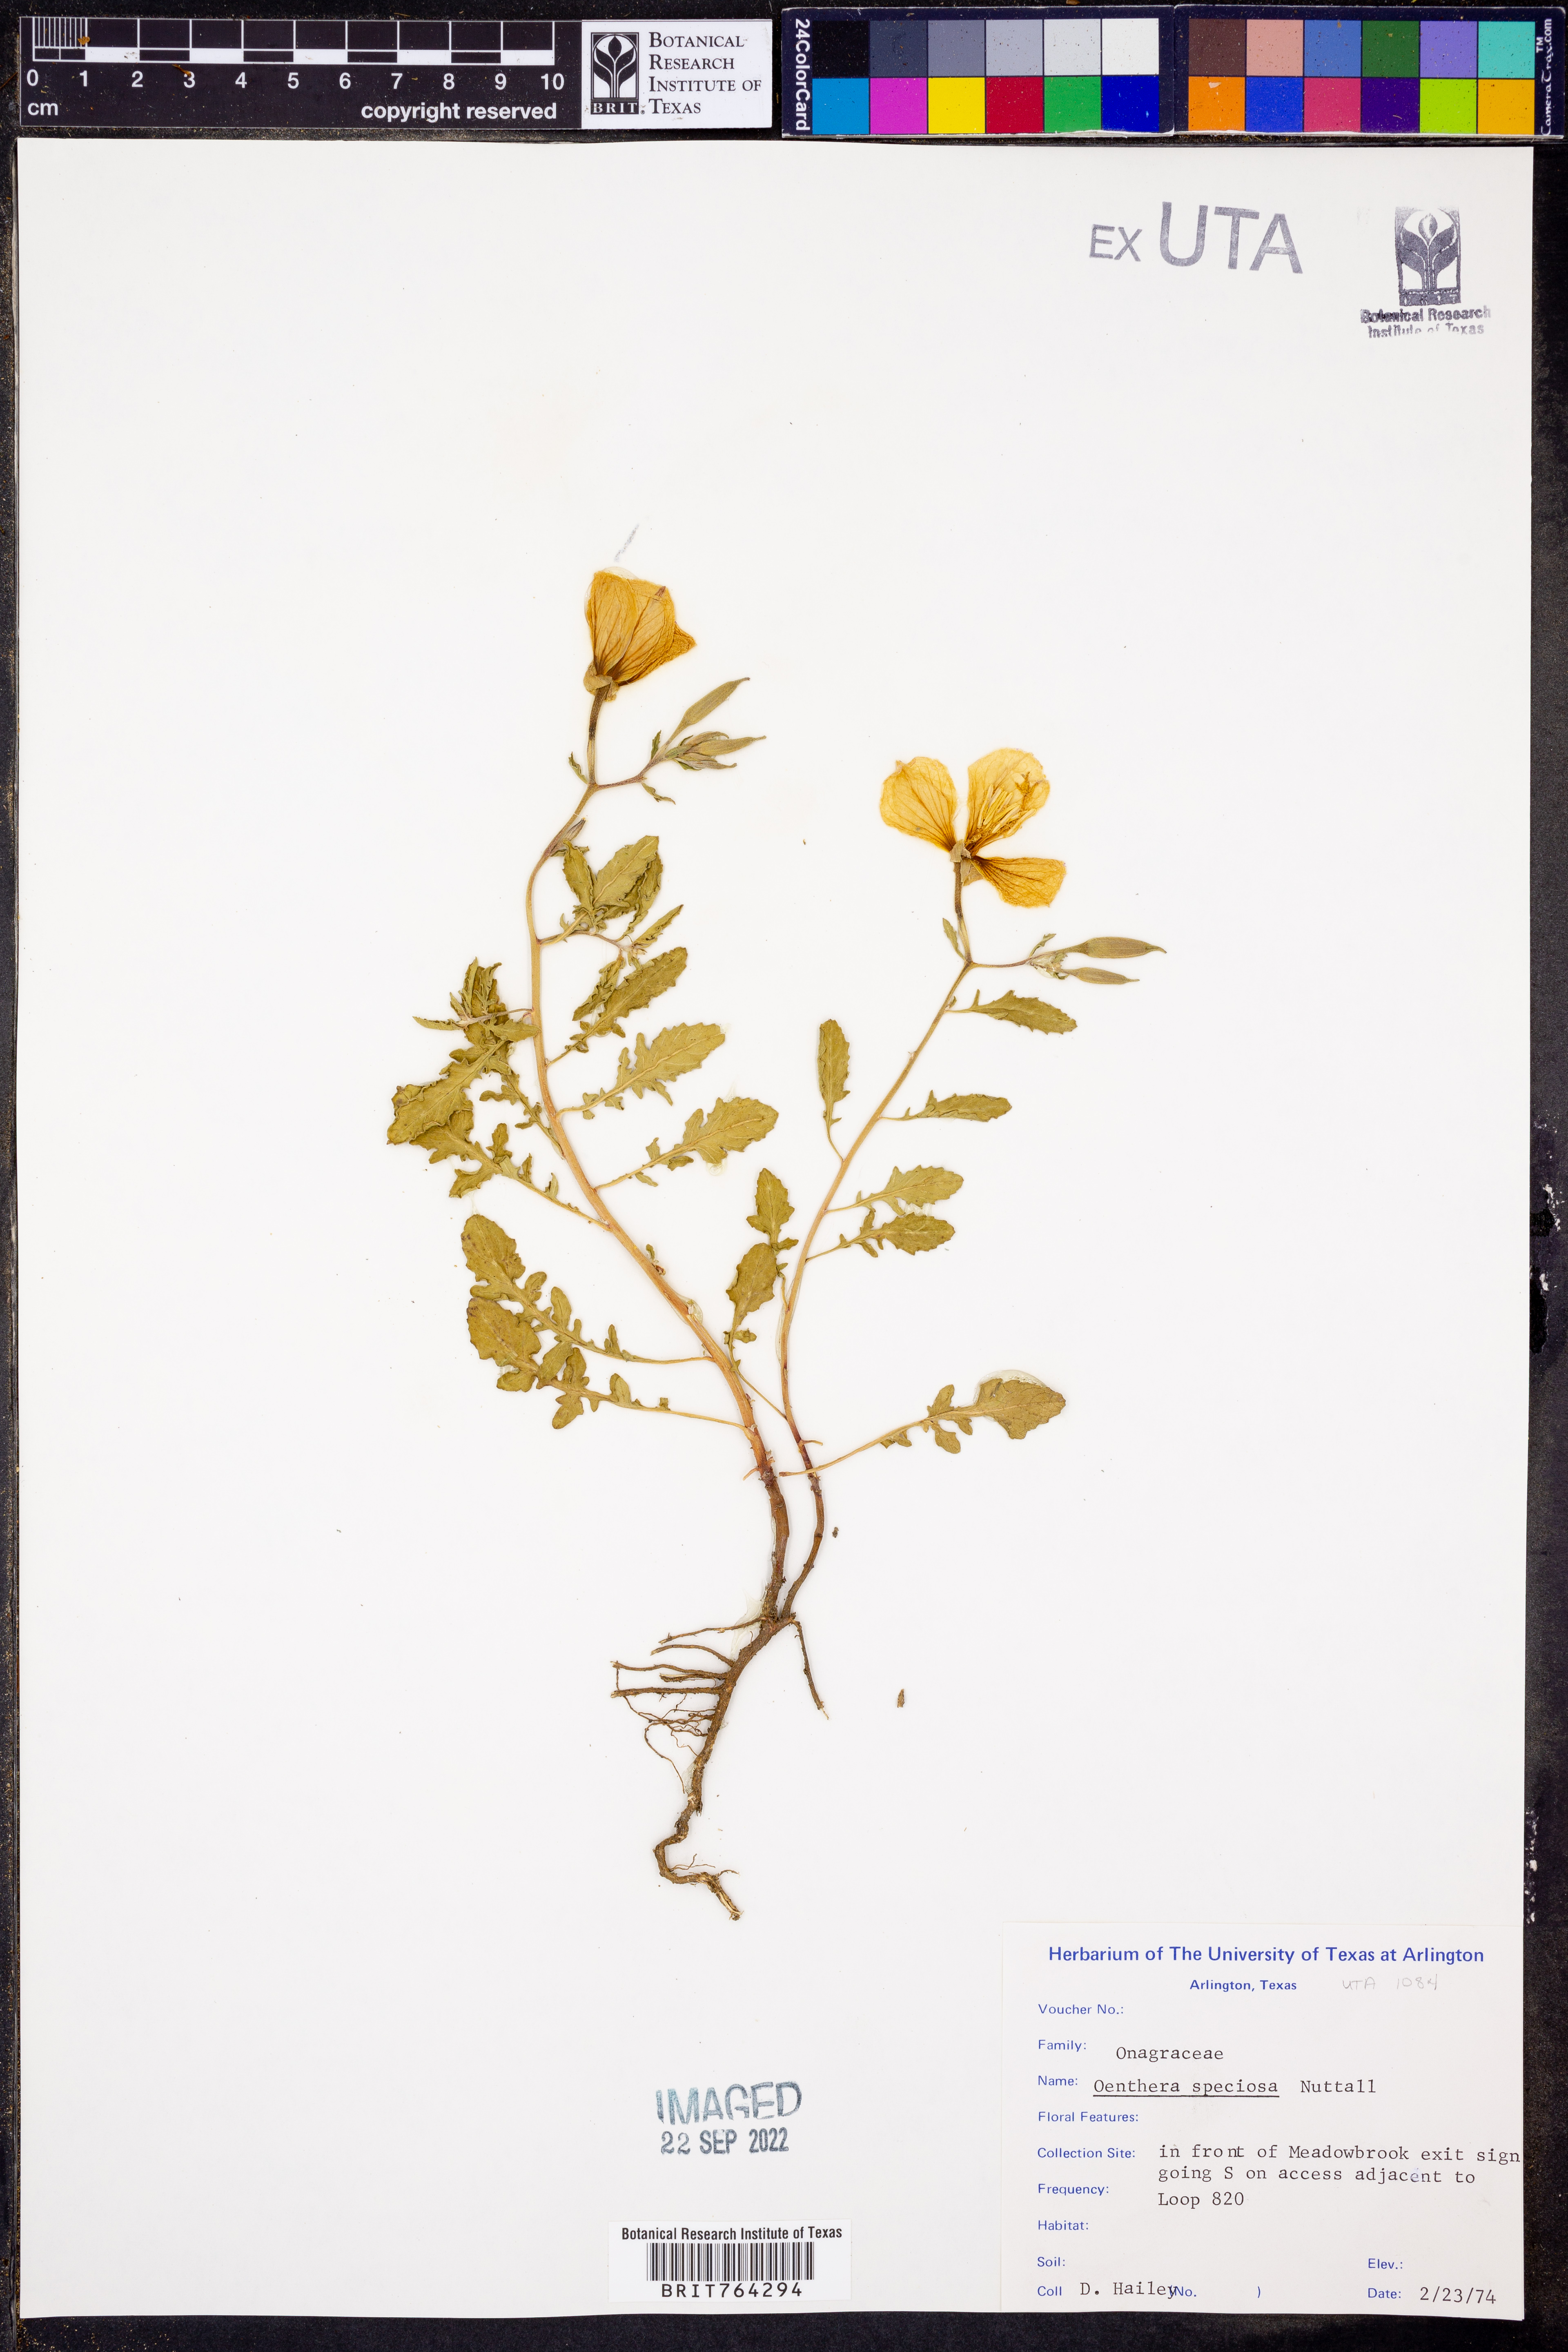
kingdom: Plantae
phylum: Tracheophyta
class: Magnoliopsida
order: Myrtales
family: Onagraceae
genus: Oenothera
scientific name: Oenothera speciosa
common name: White evening-primrose
